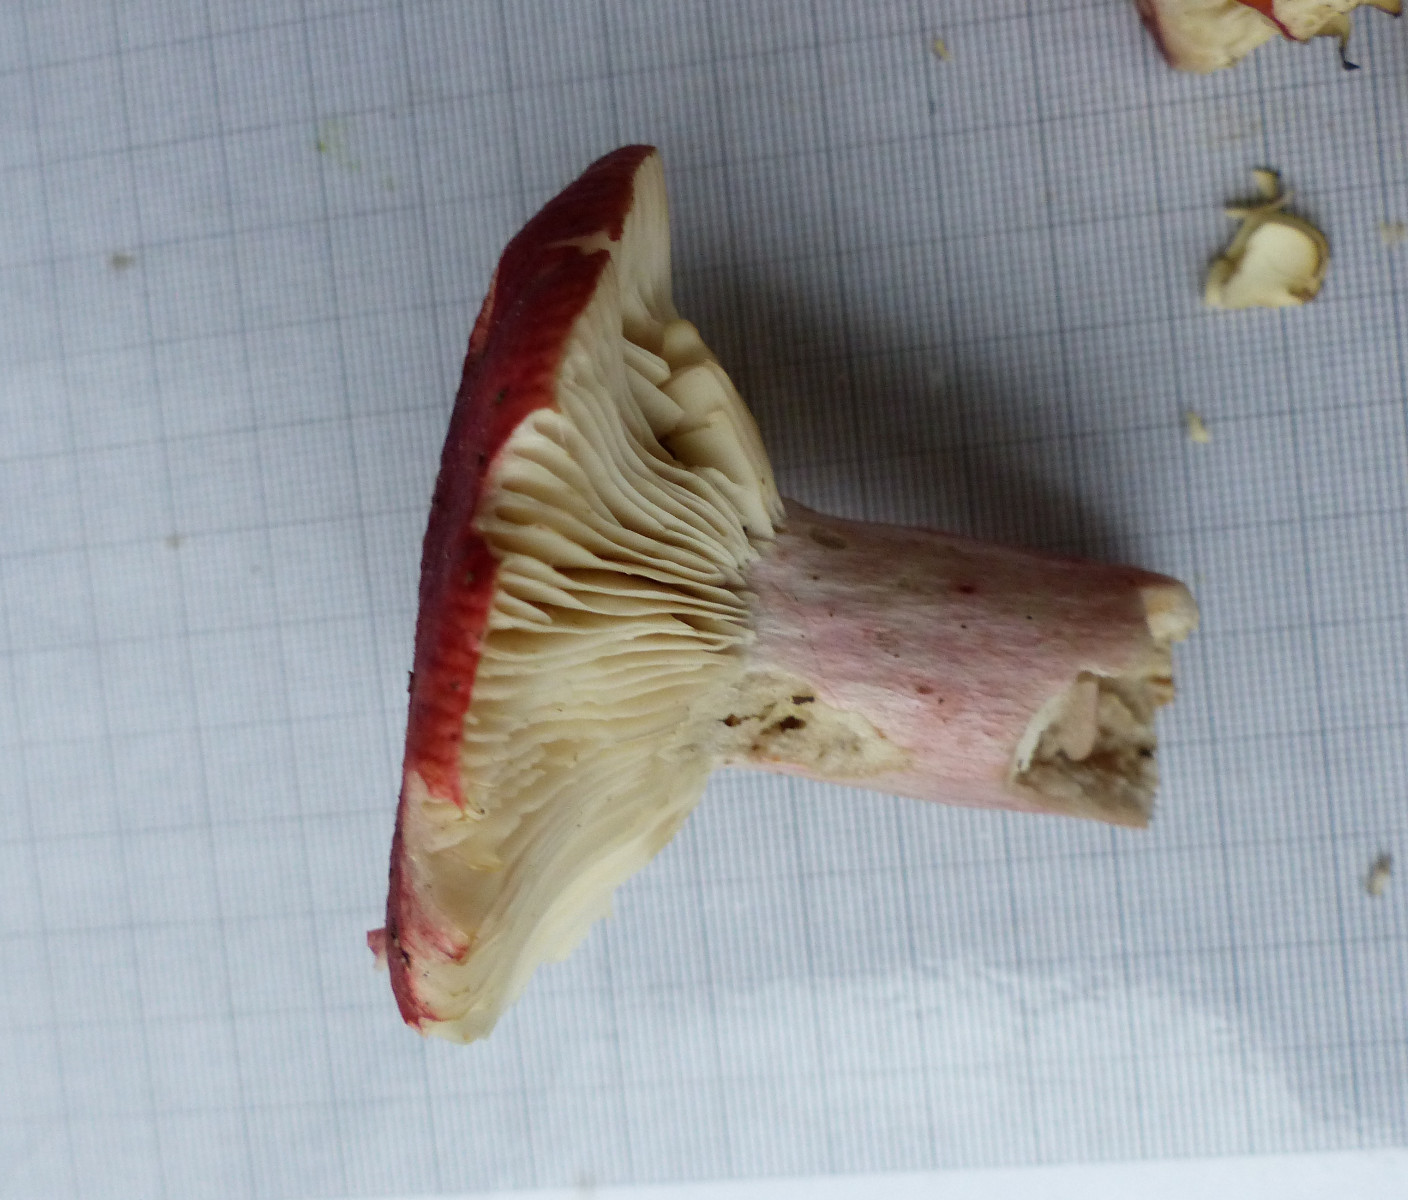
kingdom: Fungi
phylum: Basidiomycota
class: Agaricomycetes
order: Russulales
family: Russulaceae
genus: Russula
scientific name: Russula sanguinea
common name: blodrød skørhat
